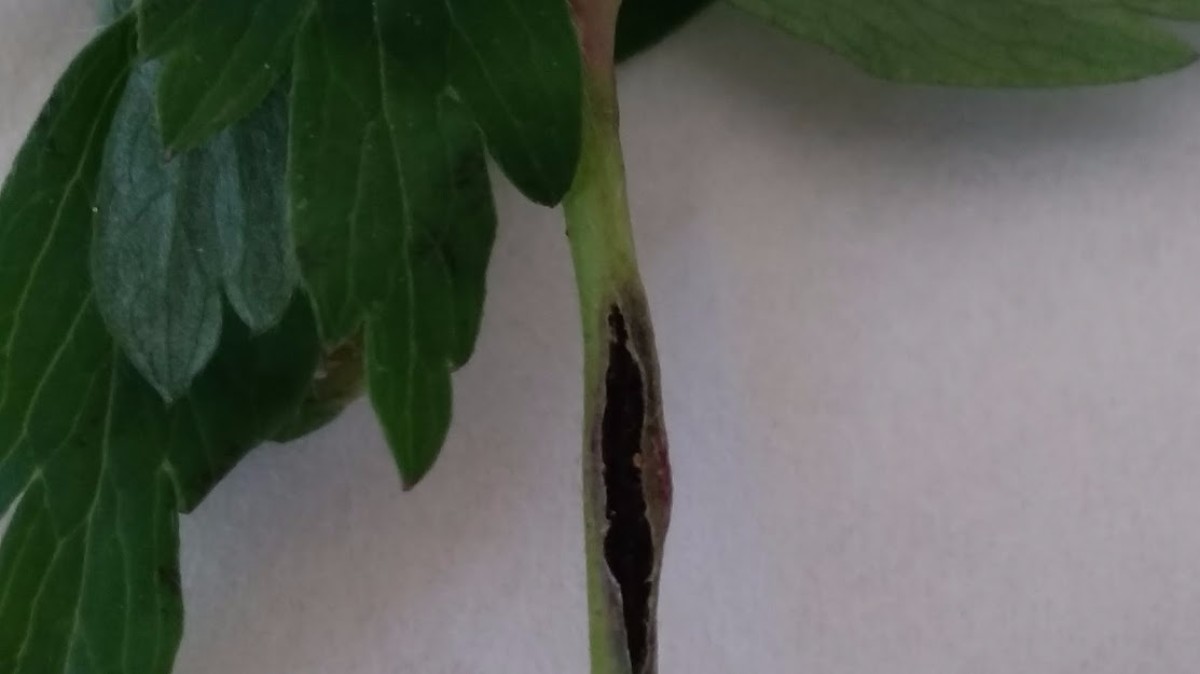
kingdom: Fungi
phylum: Basidiomycota
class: Ustilaginomycetes
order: Urocystidales
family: Urocystidaceae
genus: Urocystis
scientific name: Urocystis anemones
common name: anemone-brand
